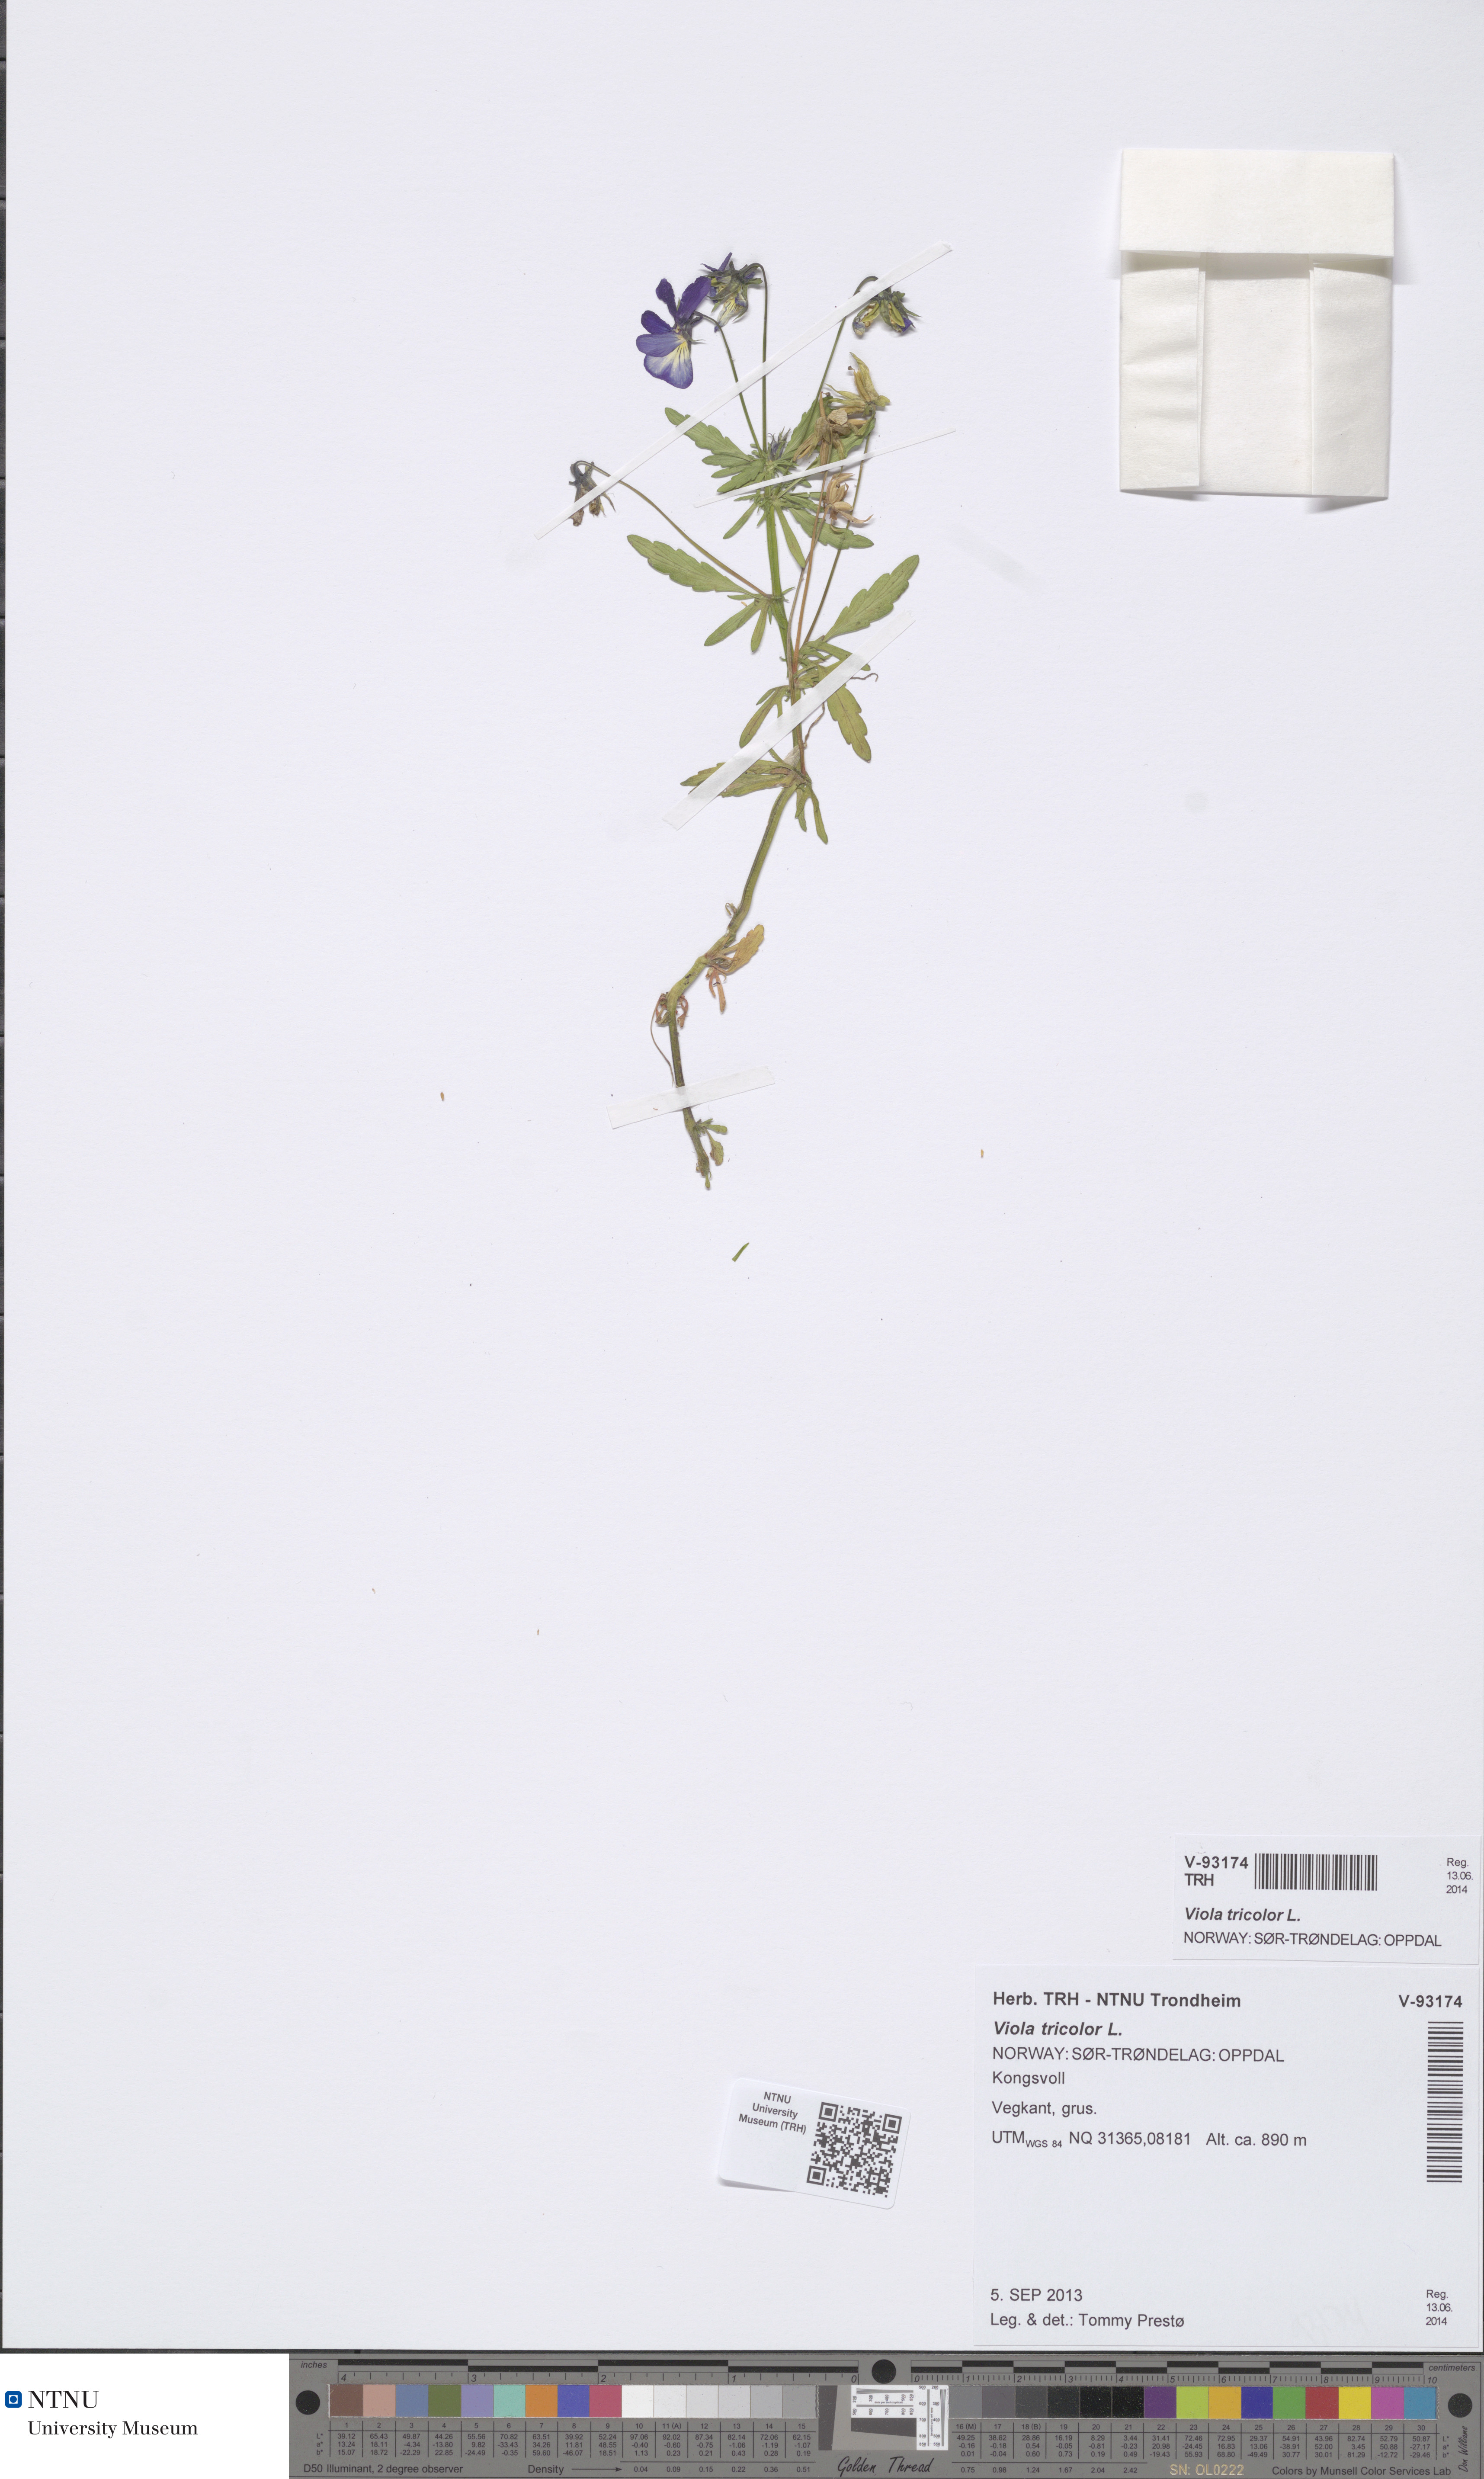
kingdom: Plantae
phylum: Tracheophyta
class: Magnoliopsida
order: Malpighiales
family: Violaceae
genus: Viola
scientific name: Viola tricolor
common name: Pansy
